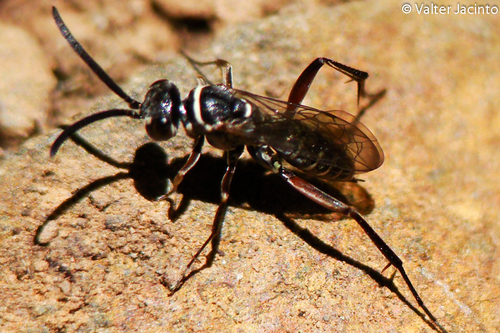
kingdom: Animalia
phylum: Arthropoda
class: Insecta
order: Hymenoptera
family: Pompilidae
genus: Ceropales
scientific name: Ceropales albicincta
